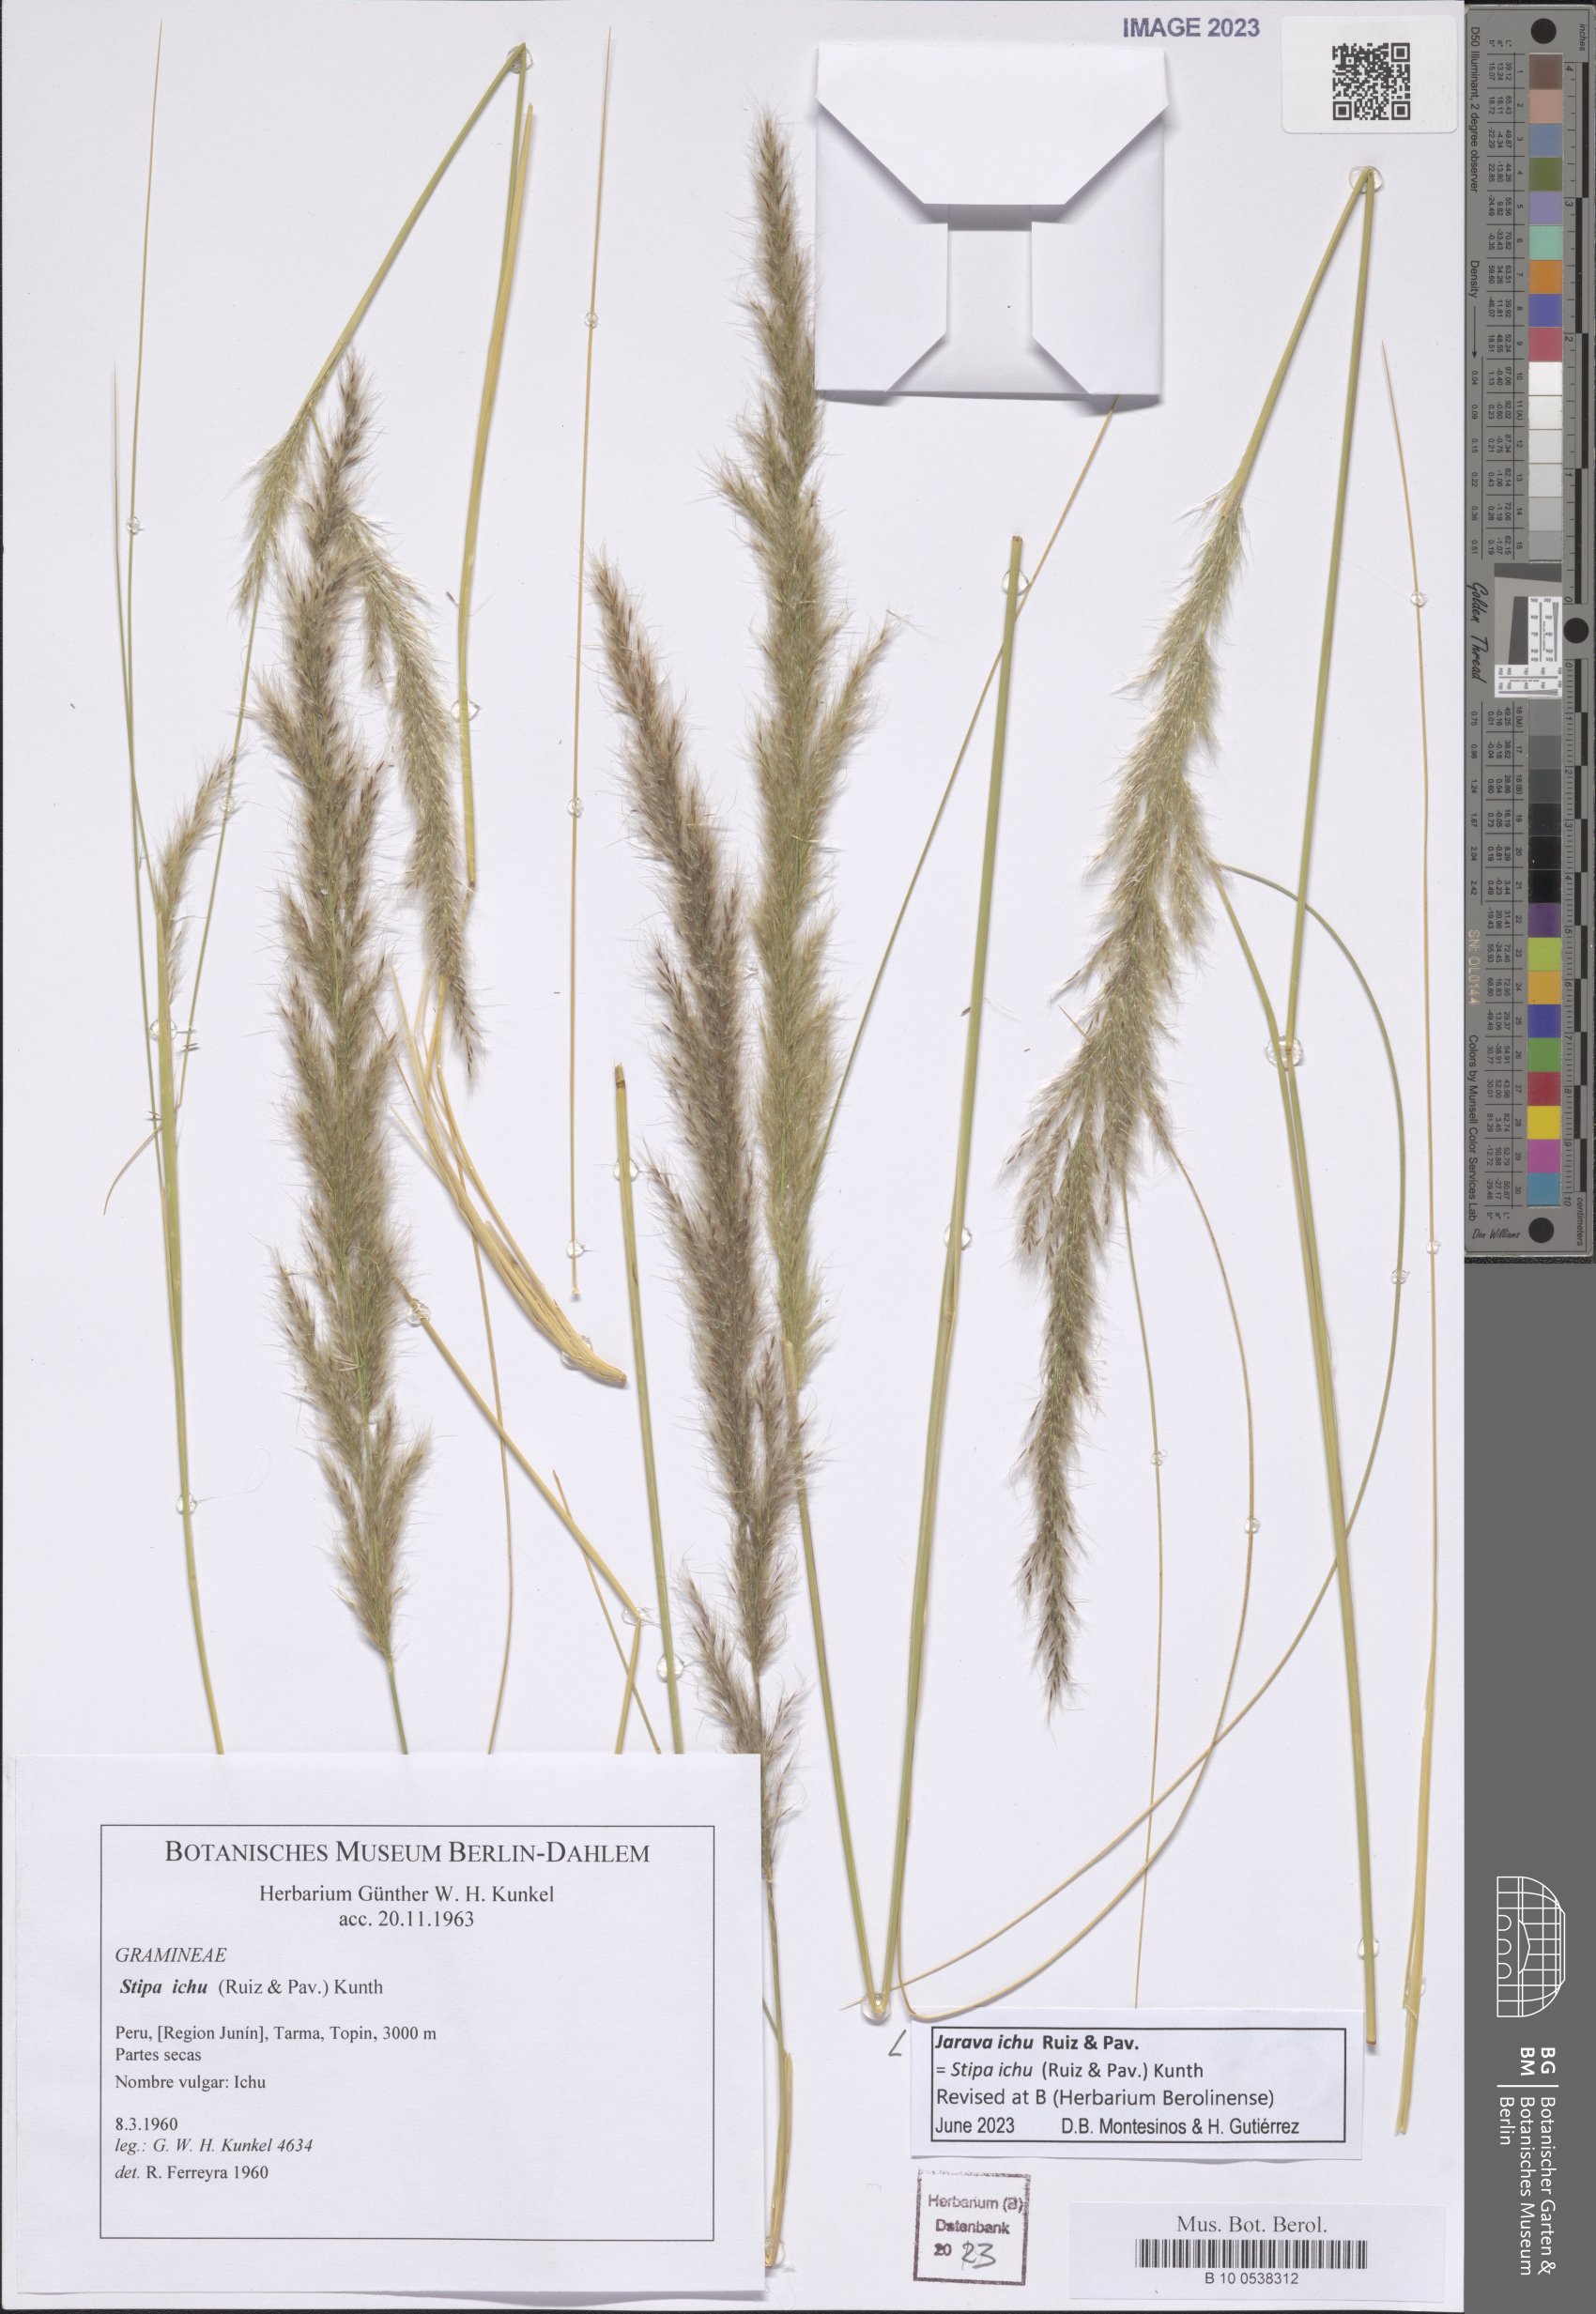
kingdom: Plantae
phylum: Tracheophyta
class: Liliopsida
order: Poales
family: Poaceae
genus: Jarava
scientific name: Jarava ichu
